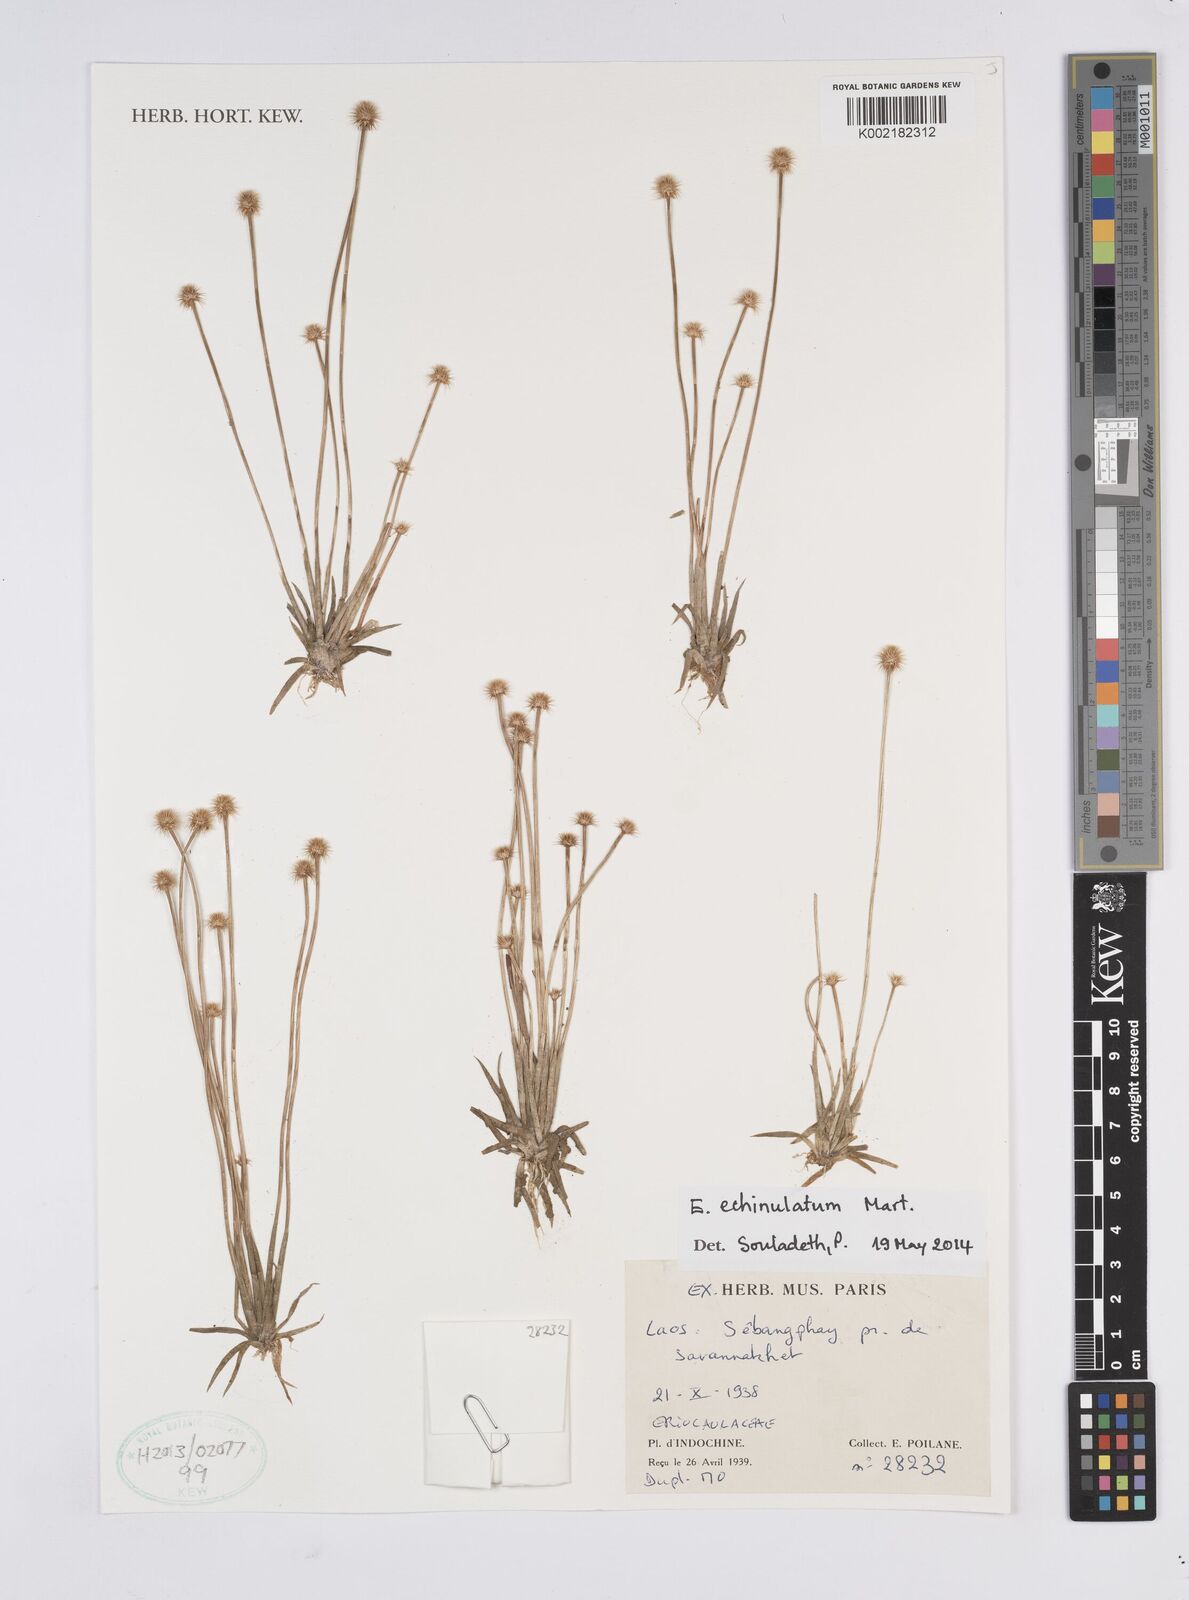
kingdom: Plantae
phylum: Tracheophyta
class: Liliopsida
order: Poales
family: Eriocaulaceae
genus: Eriocaulon
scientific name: Eriocaulon echinulatum
